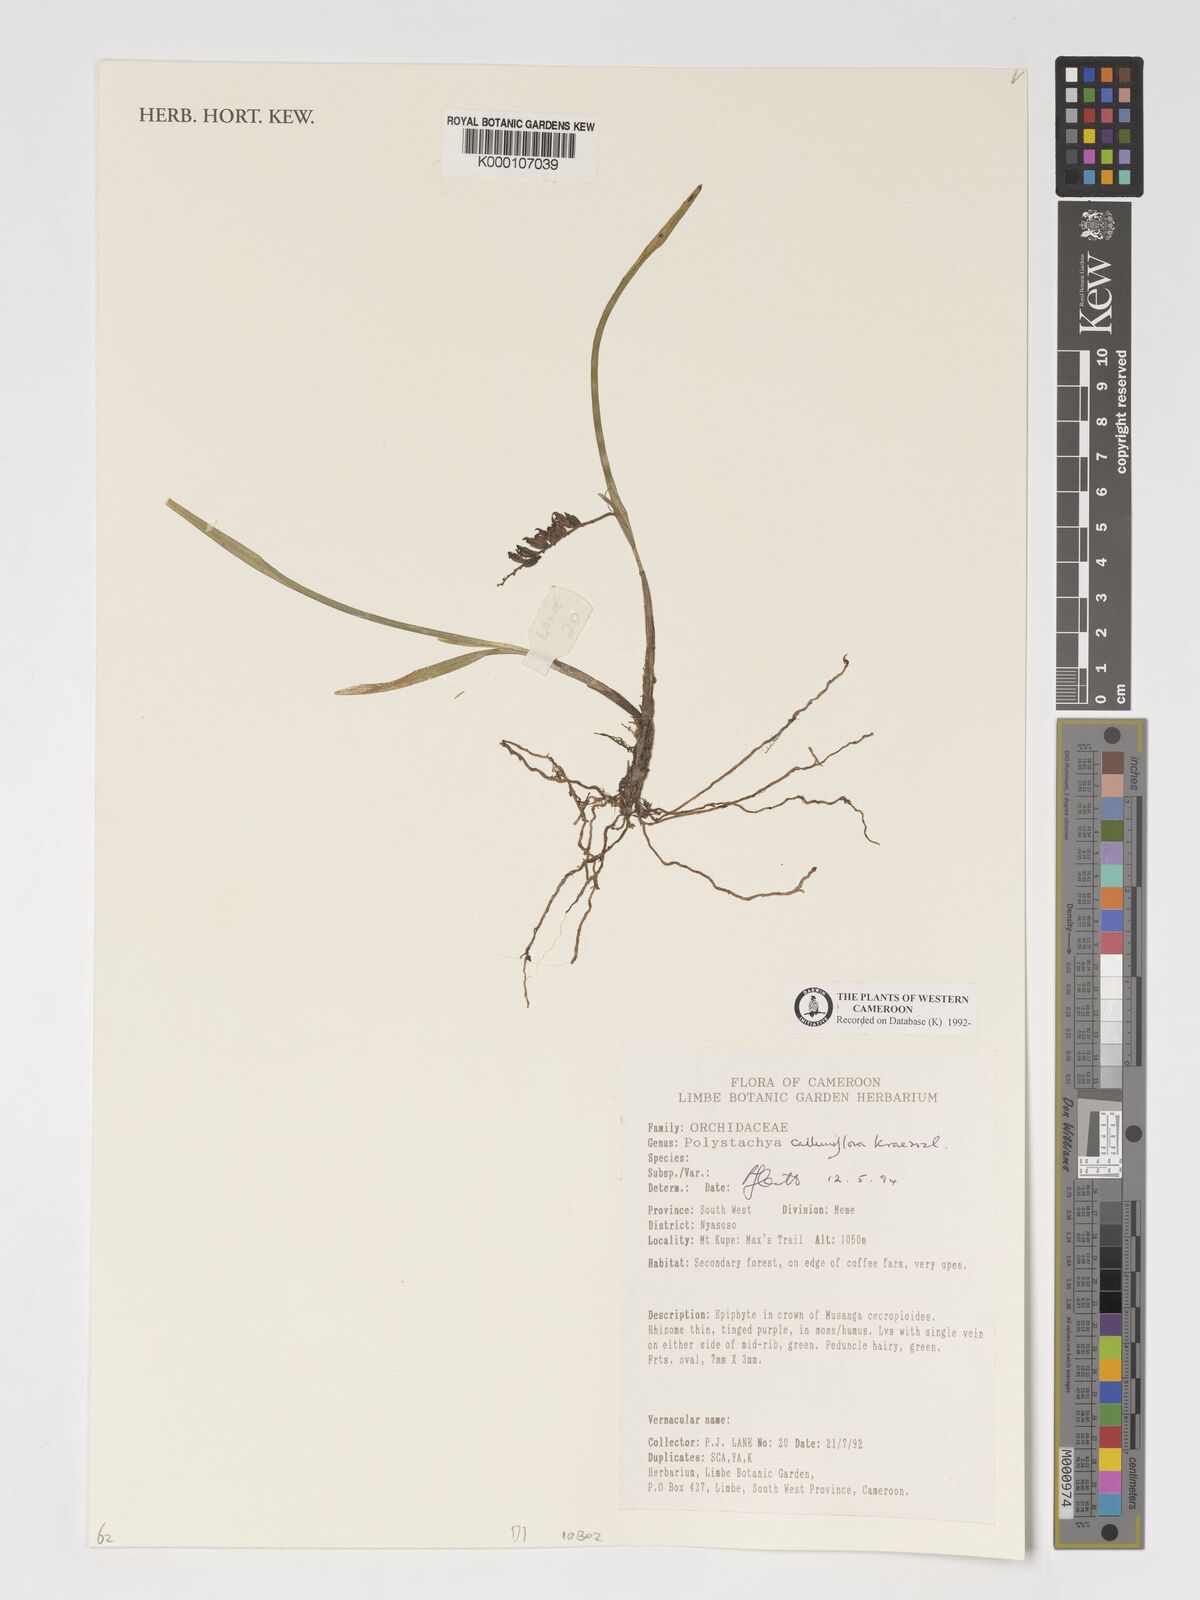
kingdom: Plantae
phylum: Tracheophyta
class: Liliopsida
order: Asparagales
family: Orchidaceae
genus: Polystachya
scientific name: Polystachya calluniflora
